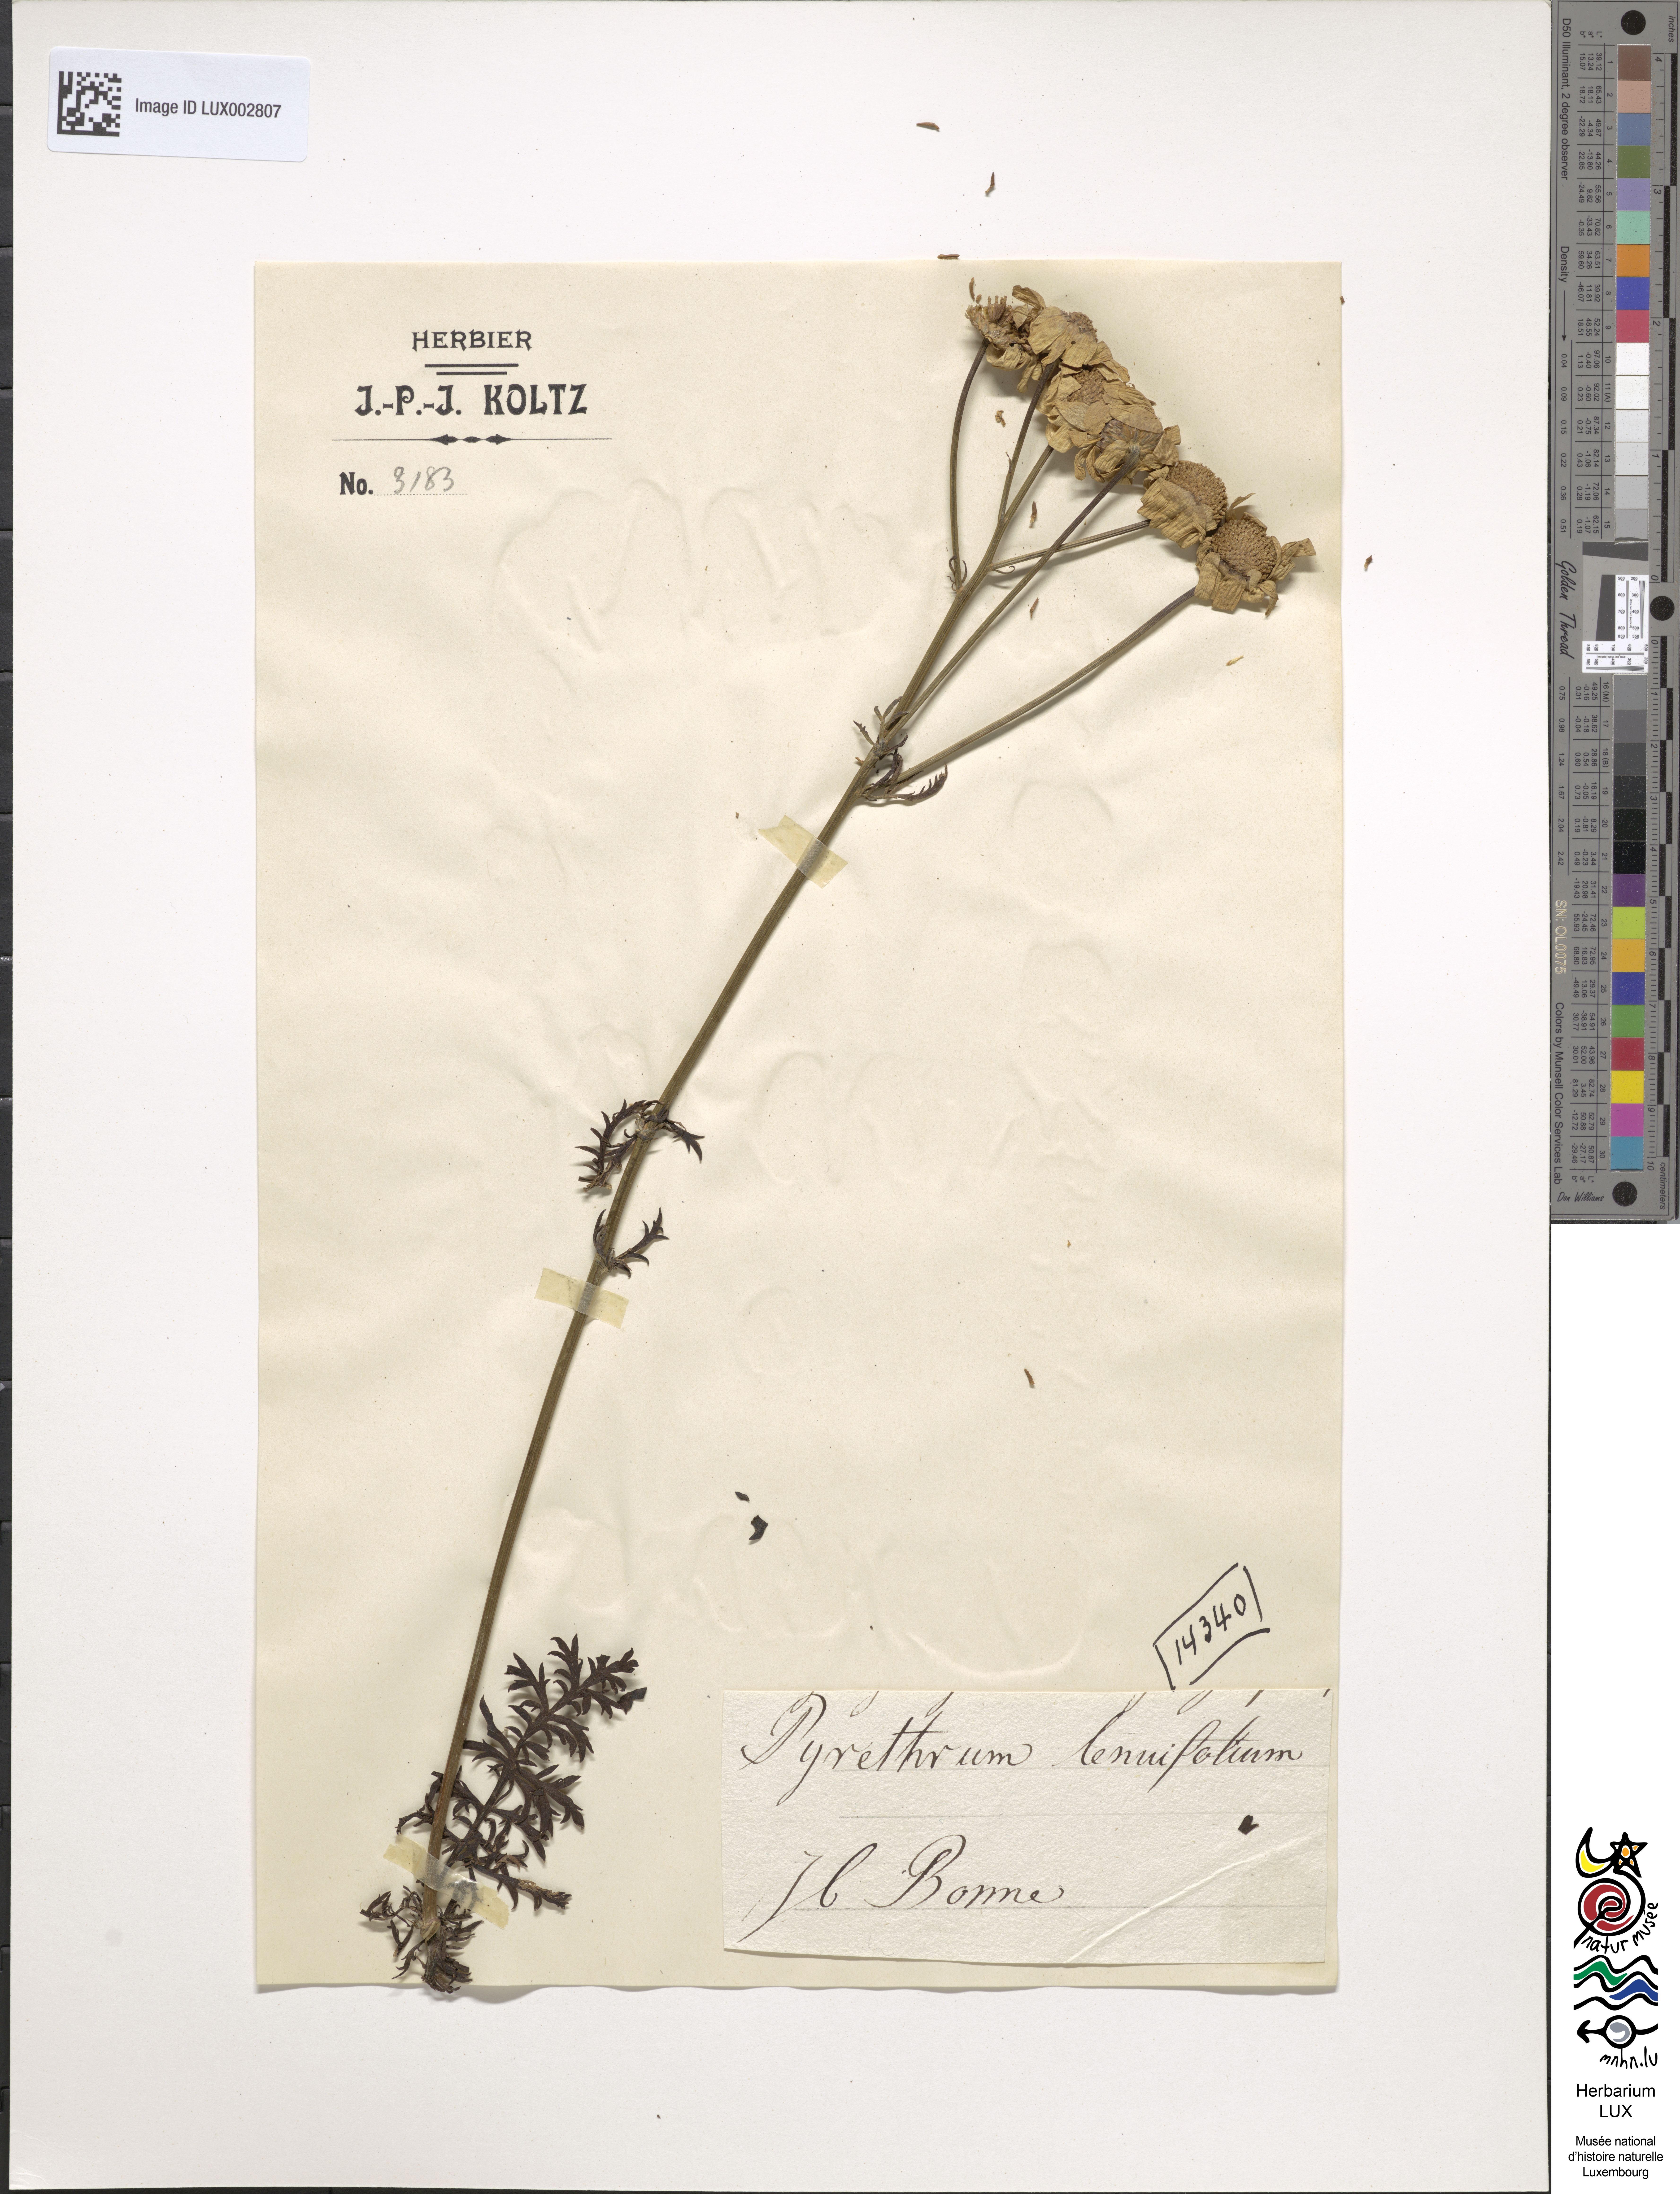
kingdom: Plantae
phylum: Tracheophyta
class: Magnoliopsida
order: Asterales
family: Asteraceae
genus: Tanacetum
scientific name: Tanacetum corymbosum
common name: Scentless feverfew
